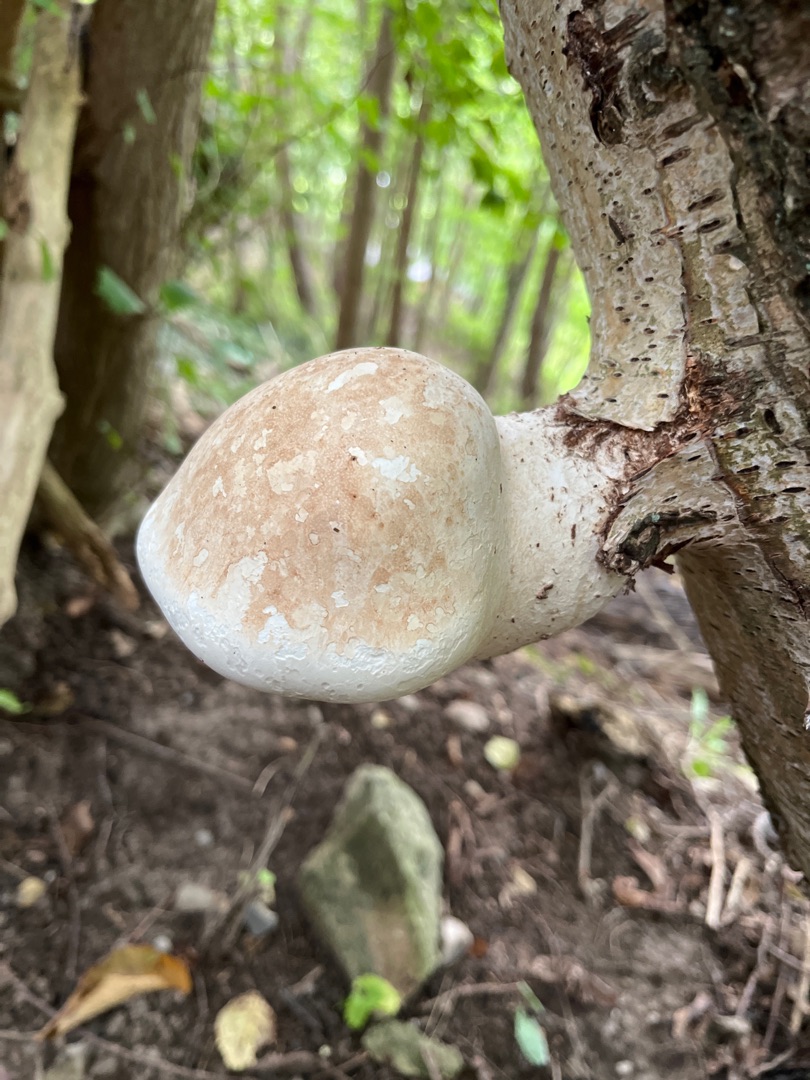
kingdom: Fungi
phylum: Basidiomycota
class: Agaricomycetes
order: Polyporales
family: Fomitopsidaceae
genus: Fomitopsis
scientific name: Fomitopsis betulina
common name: Birkeporesvamp
